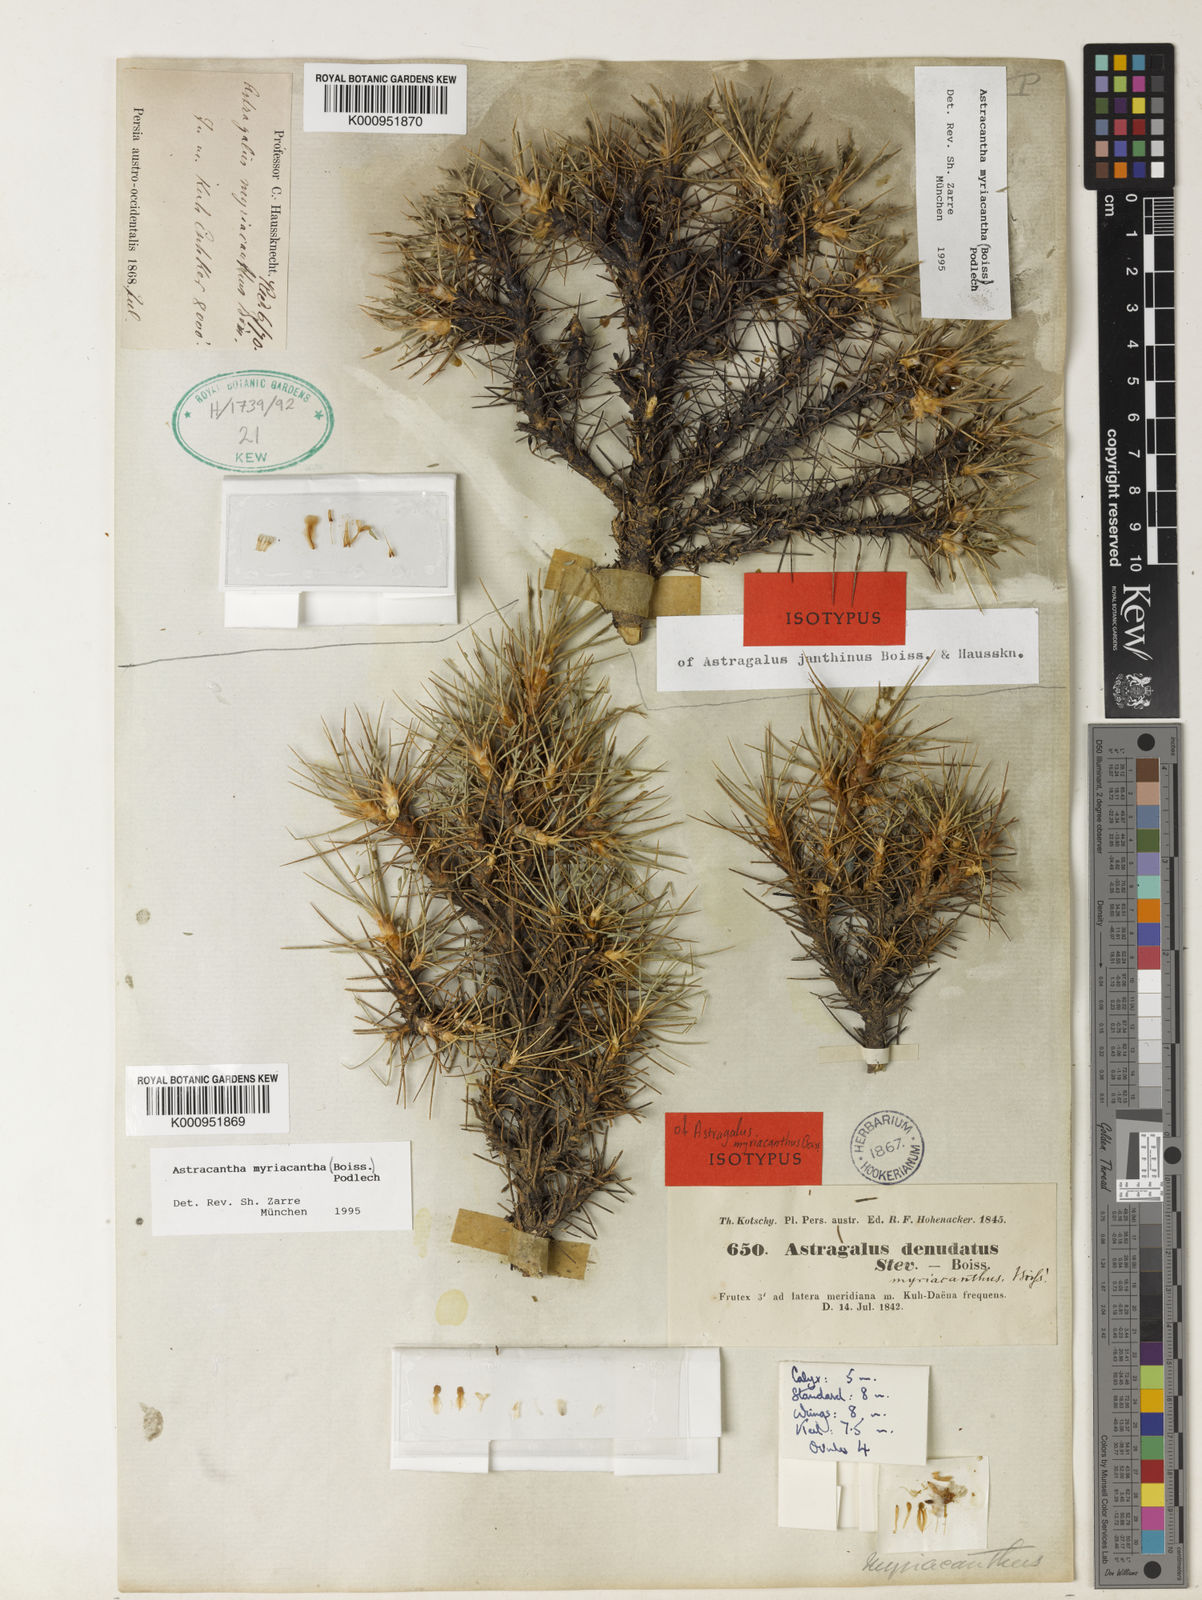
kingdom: Plantae
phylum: Tracheophyta
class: Magnoliopsida
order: Fabales
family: Fabaceae
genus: Astragalus
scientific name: Astragalus myriacanthus
